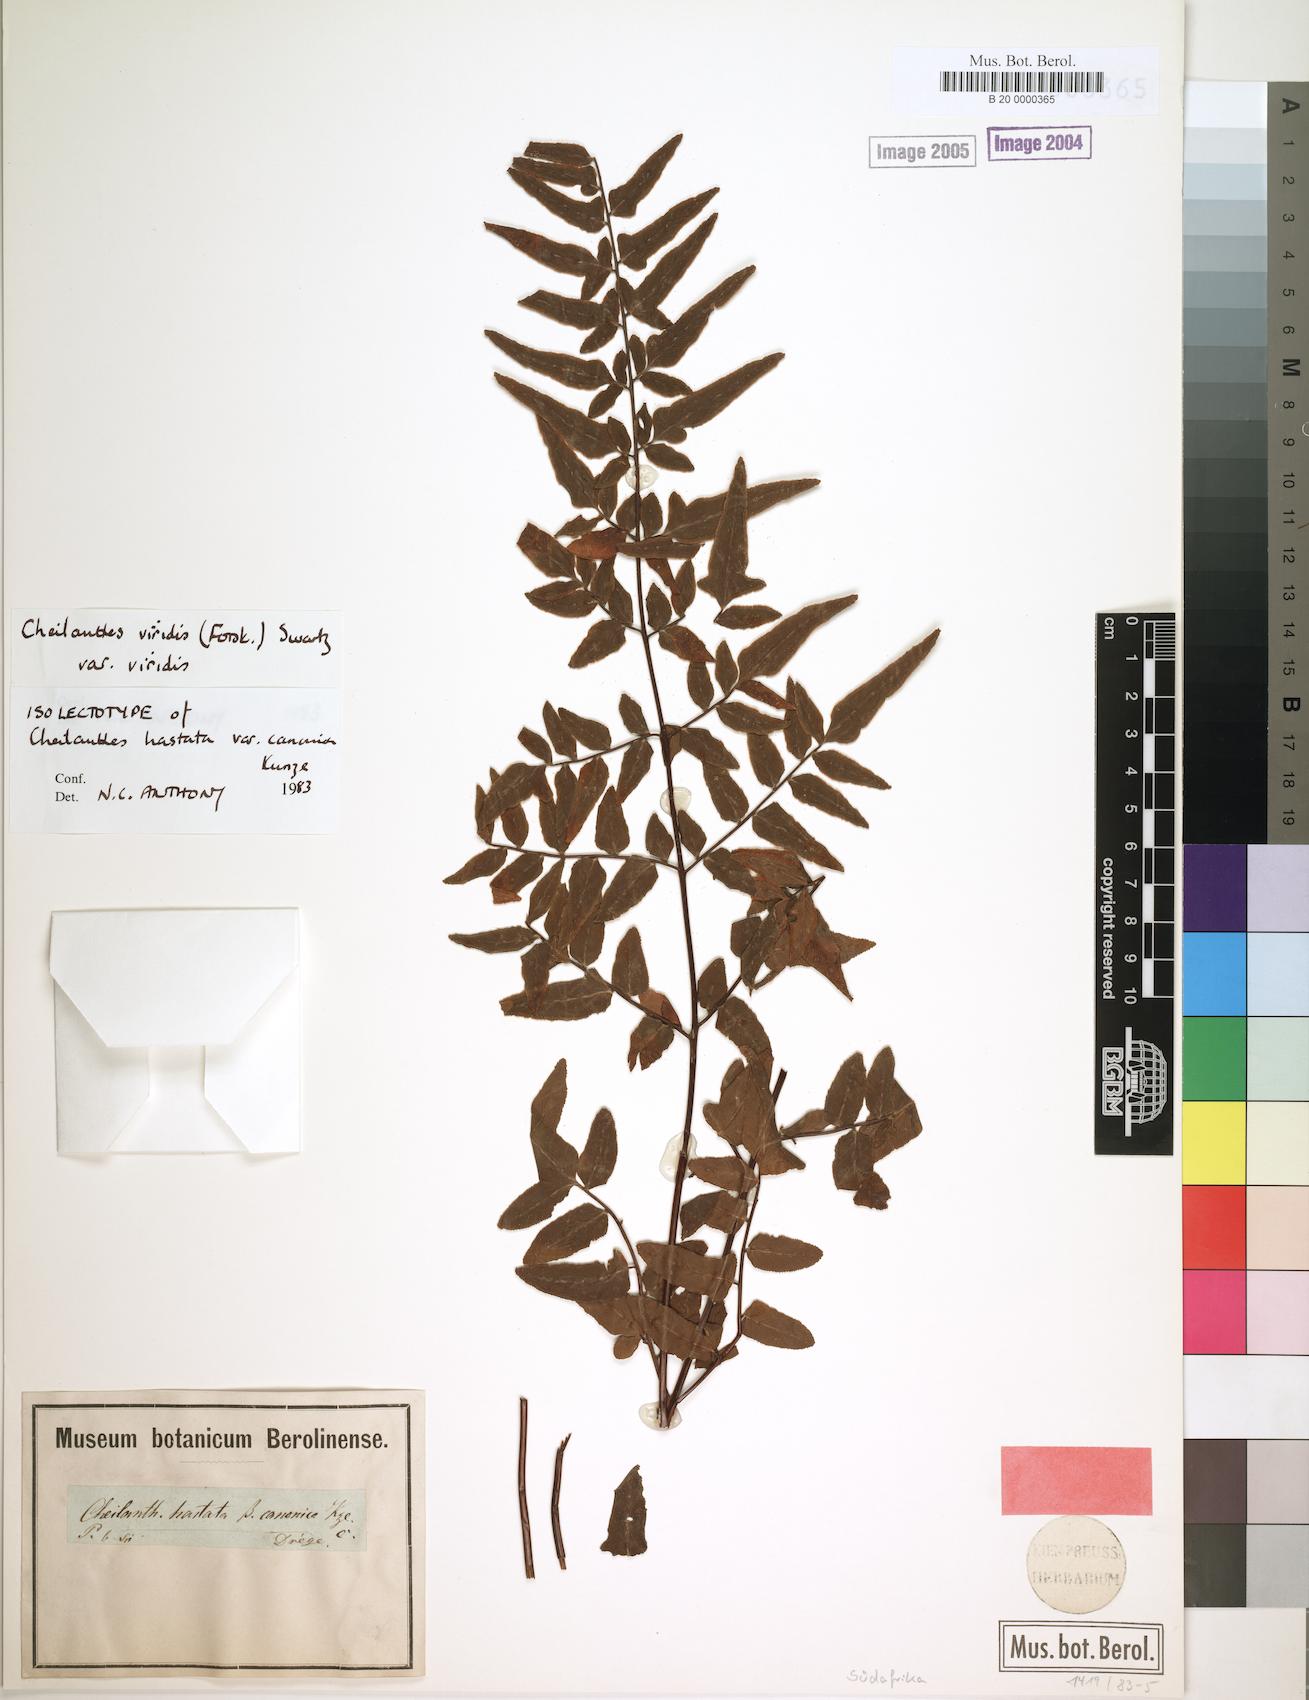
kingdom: Plantae
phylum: Tracheophyta
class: Polypodiopsida
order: Polypodiales
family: Pteridaceae
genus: Cheilanthes
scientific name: Cheilanthes viridis
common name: Green cliffbrake
